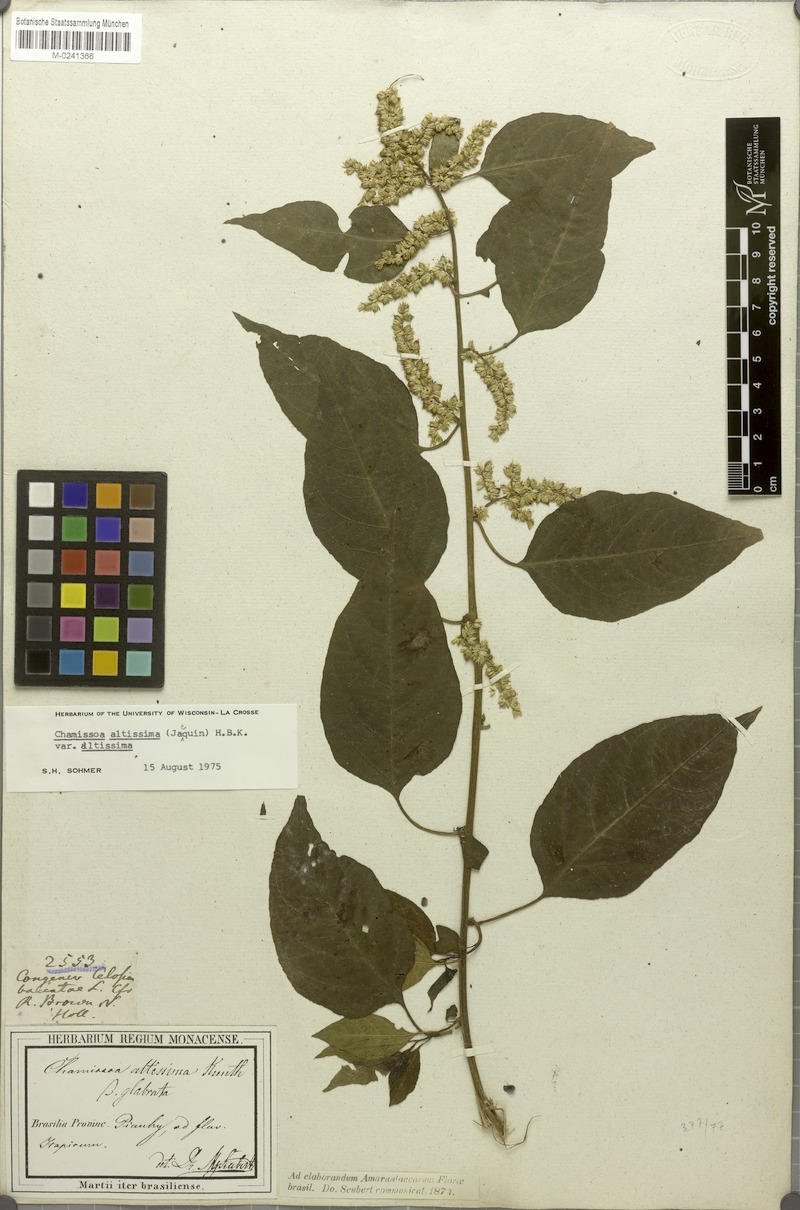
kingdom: Plantae
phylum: Tracheophyta
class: Magnoliopsida
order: Caryophyllales
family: Amaranthaceae
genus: Chamissoa
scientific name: Chamissoa altissima
